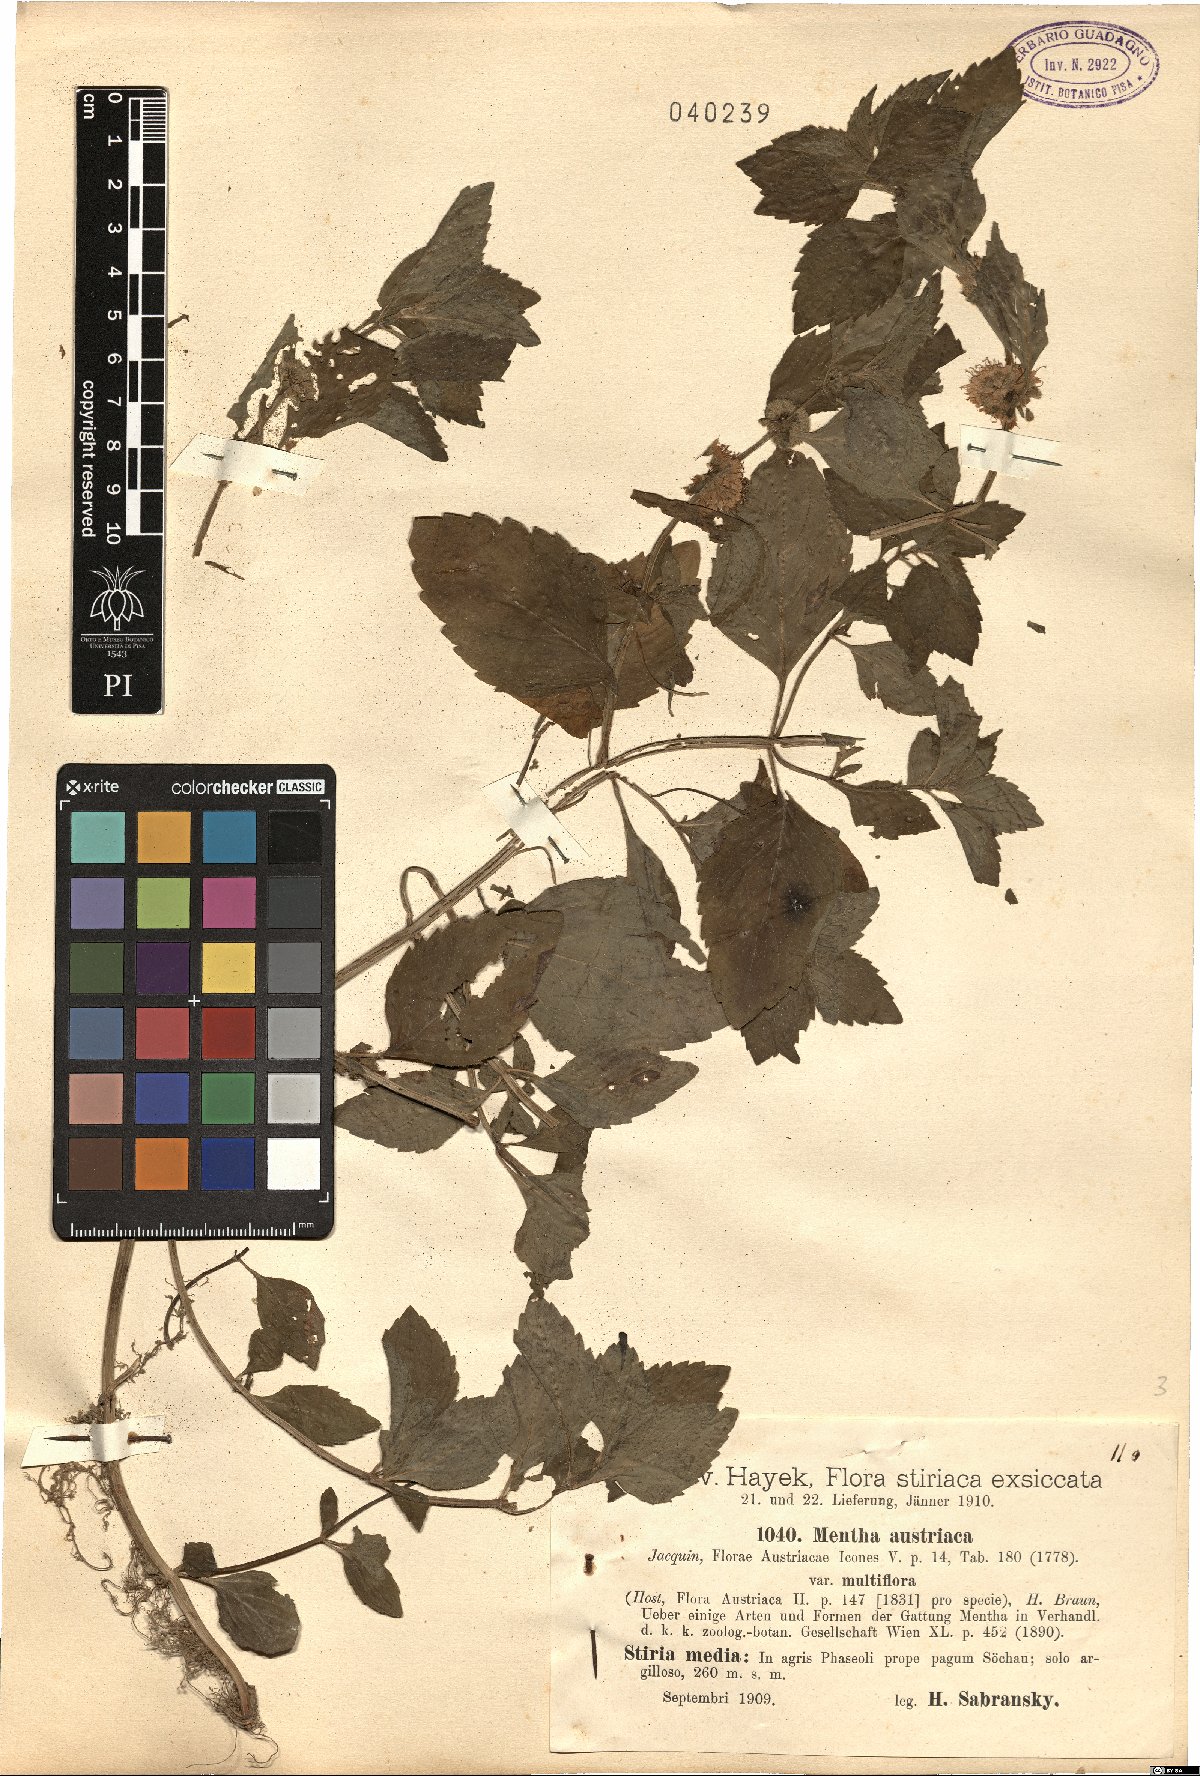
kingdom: Plantae
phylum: Tracheophyta
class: Magnoliopsida
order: Lamiales
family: Lamiaceae
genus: Mentha
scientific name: Mentha arvensis
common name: Corn mint
